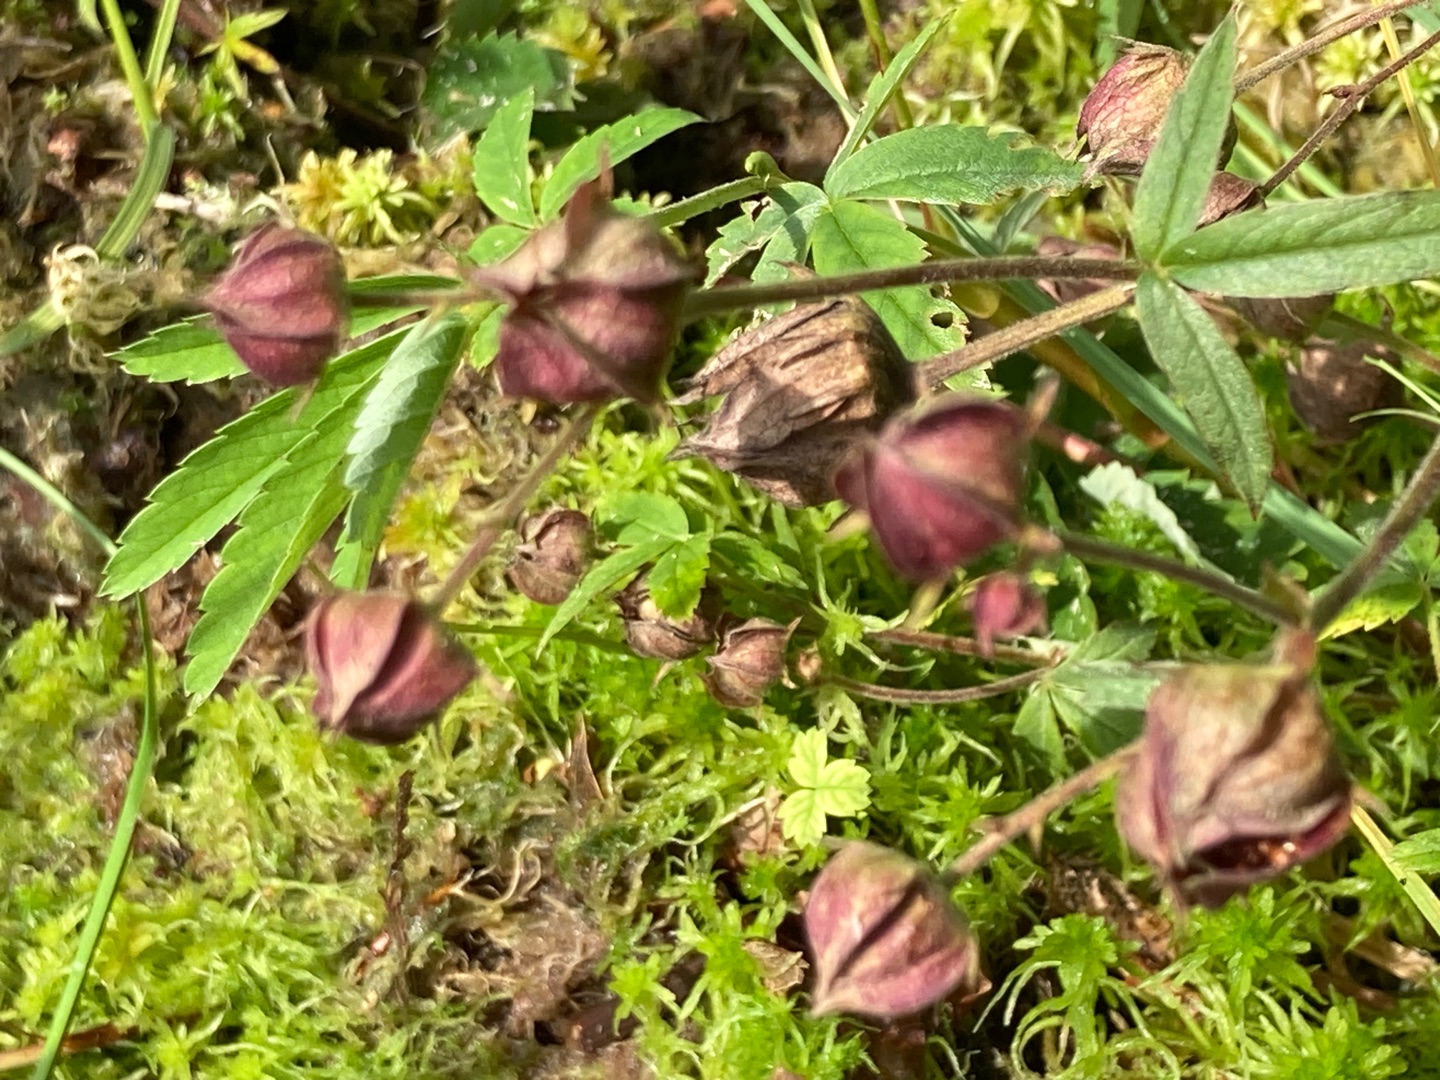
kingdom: Plantae
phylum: Tracheophyta
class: Magnoliopsida
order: Rosales
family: Rosaceae
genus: Comarum
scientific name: Comarum palustre
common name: Kragefod
